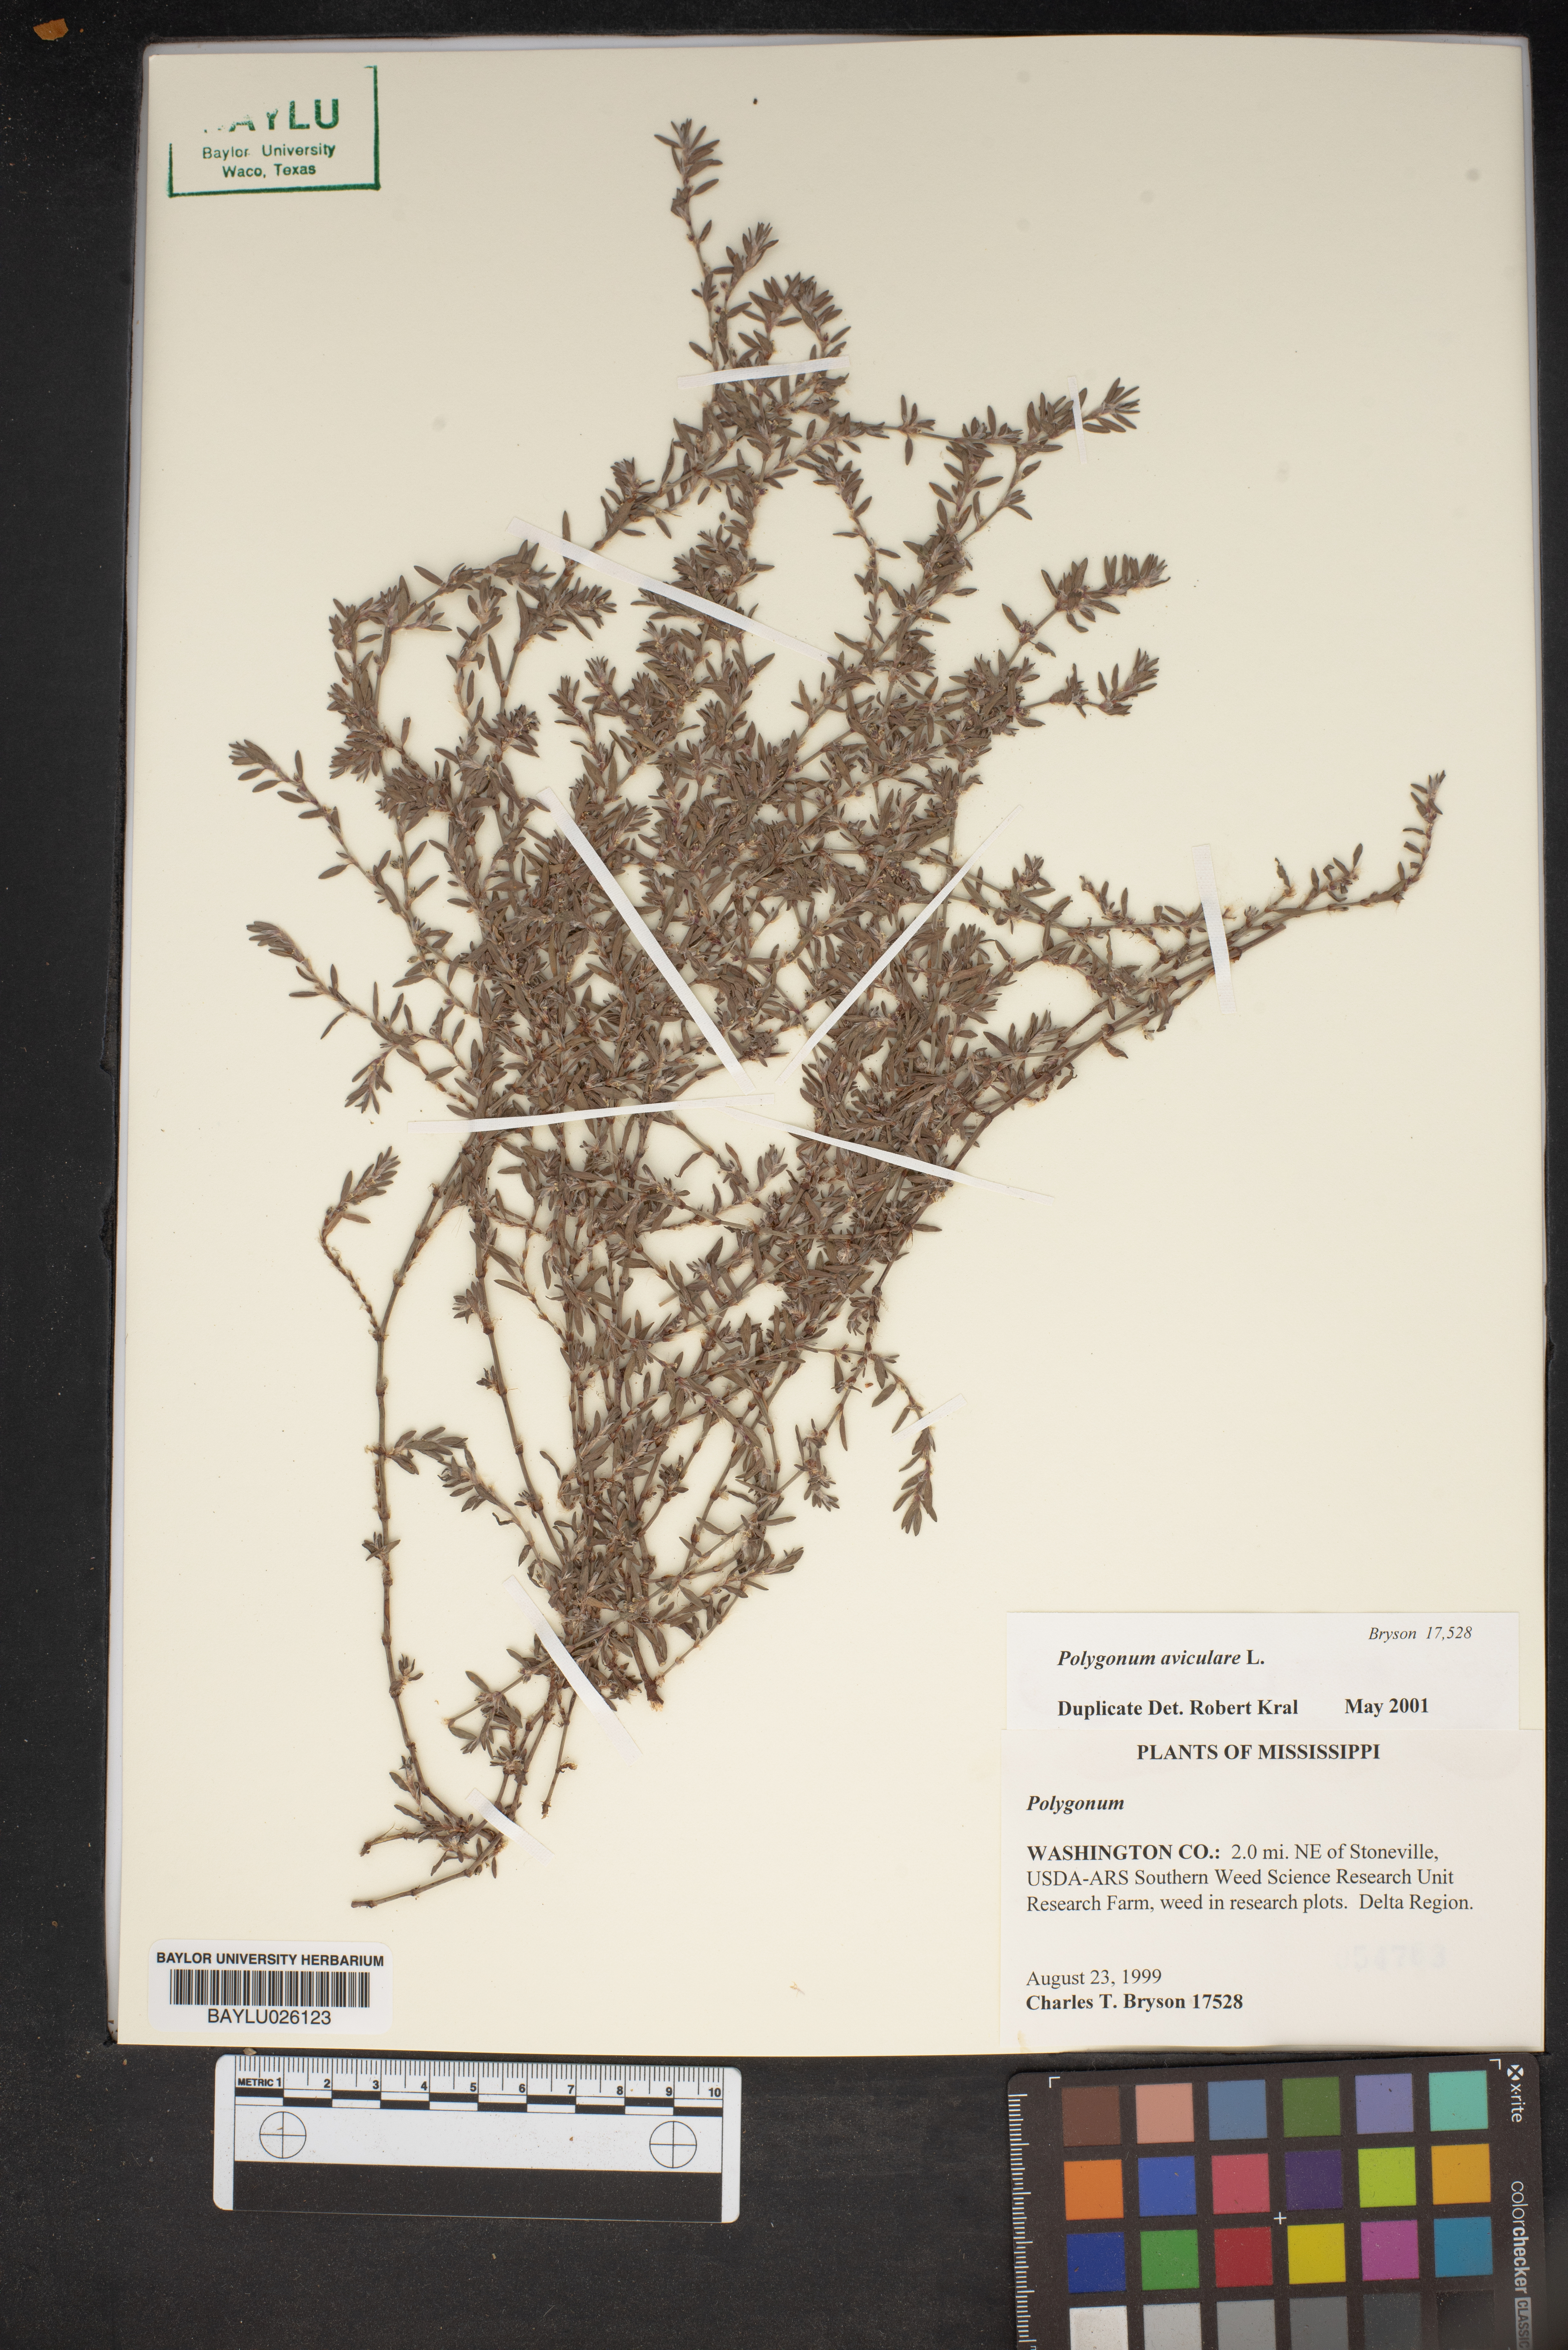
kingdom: Plantae
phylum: Tracheophyta
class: Magnoliopsida
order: Caryophyllales
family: Polygonaceae
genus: Polygonum
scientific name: Polygonum
